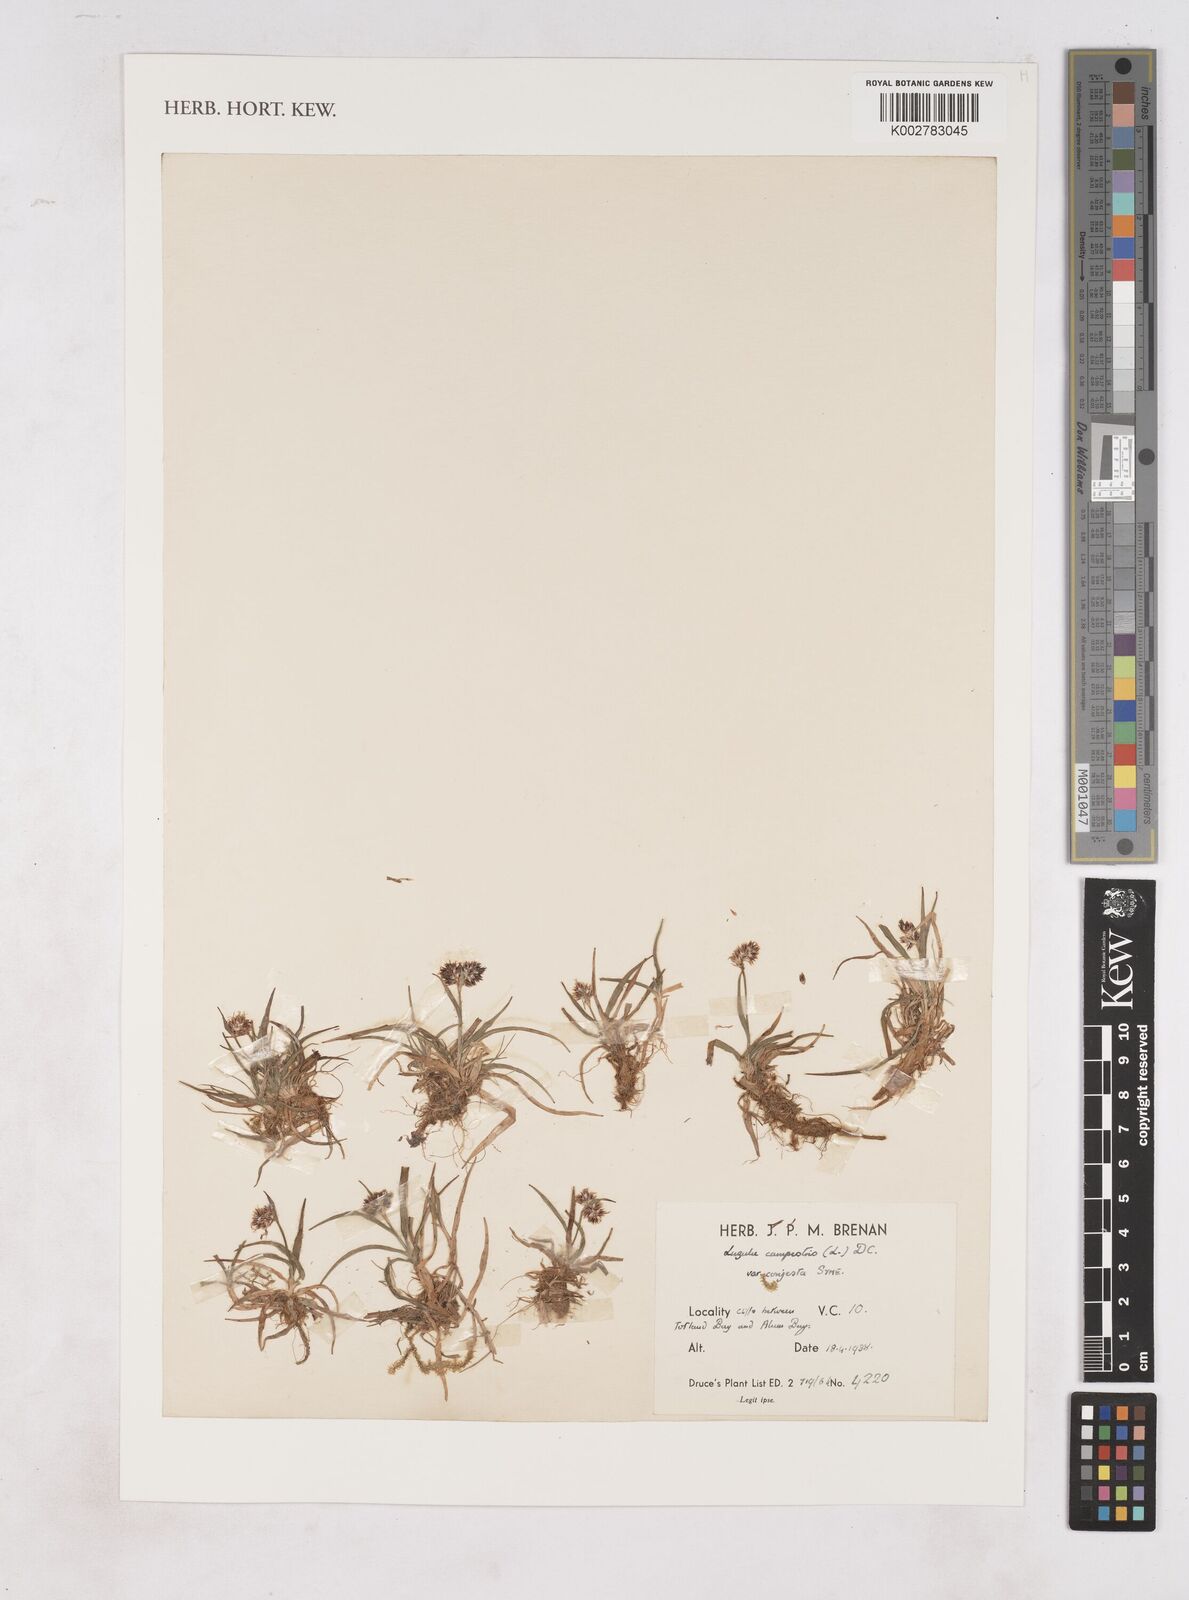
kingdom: Plantae
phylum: Tracheophyta
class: Liliopsida
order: Poales
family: Juncaceae
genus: Luzula
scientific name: Luzula campestris
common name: Field wood-rush
